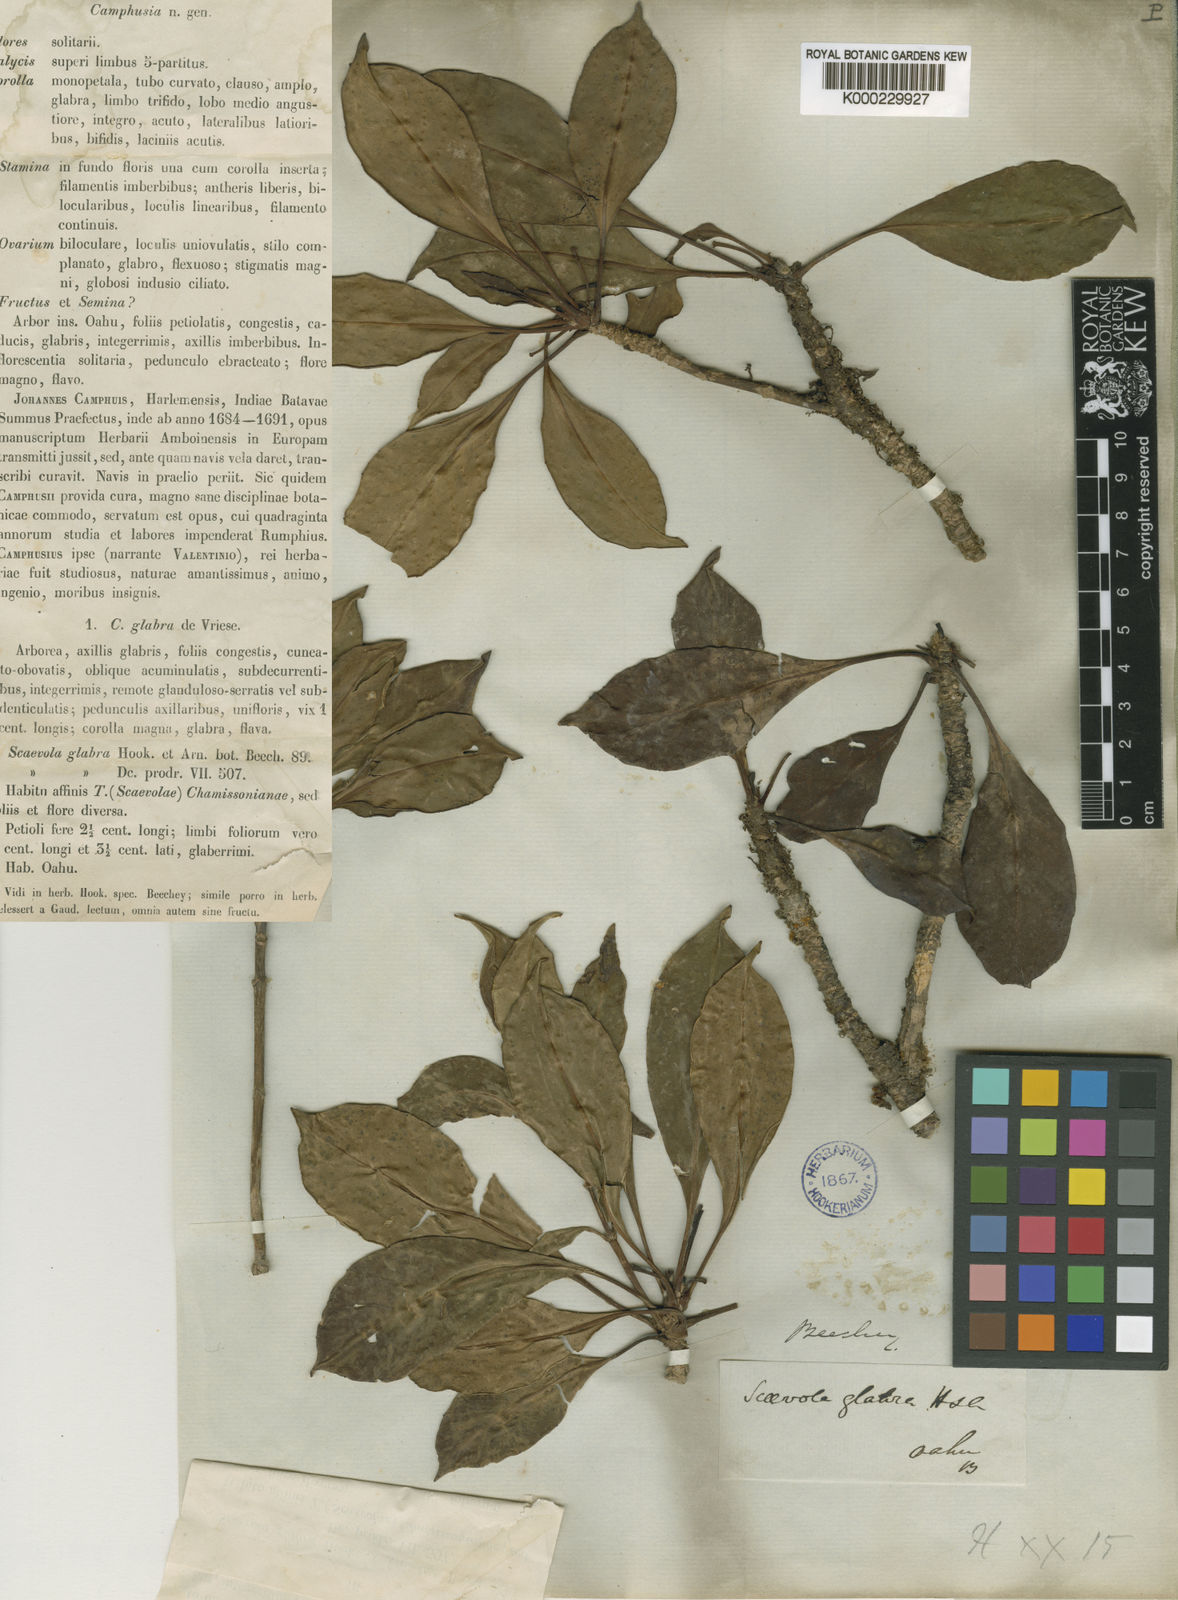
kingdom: Plantae
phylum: Tracheophyta
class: Magnoliopsida
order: Asterales
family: Goodeniaceae
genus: Scaevola
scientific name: Scaevola glabra
